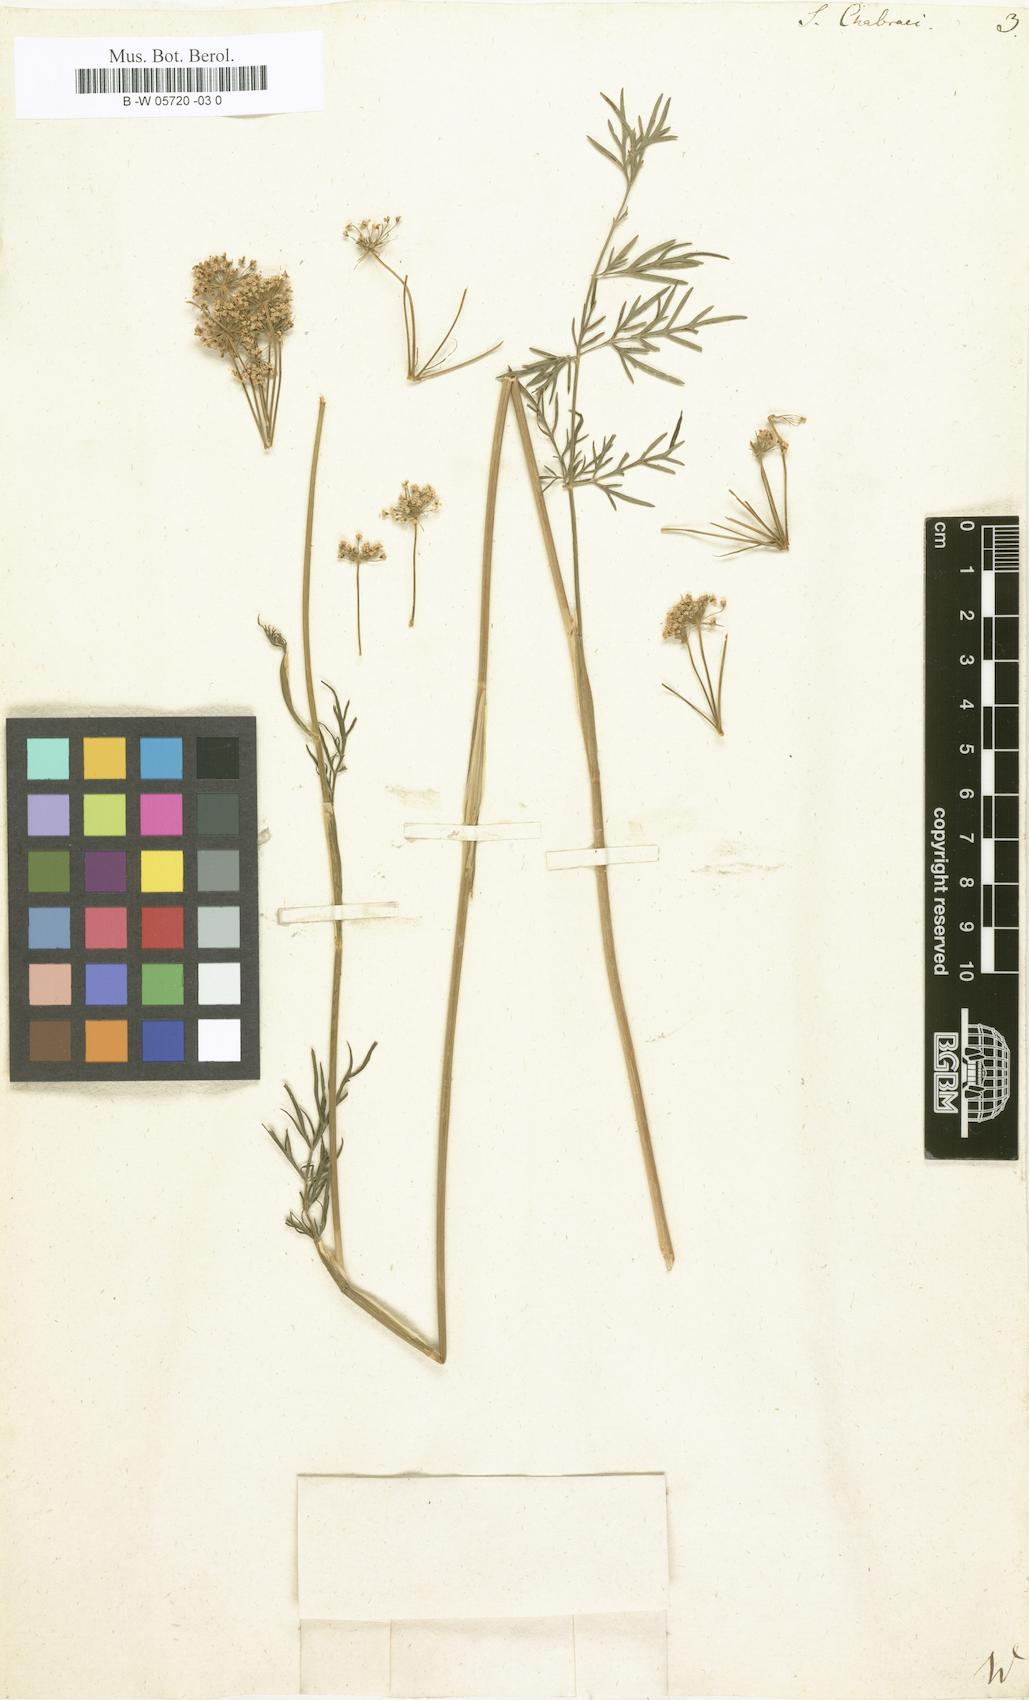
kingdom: Plantae
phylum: Tracheophyta
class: Magnoliopsida
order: Apiales
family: Apiaceae
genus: Selinum
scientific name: Selinum chabraei
